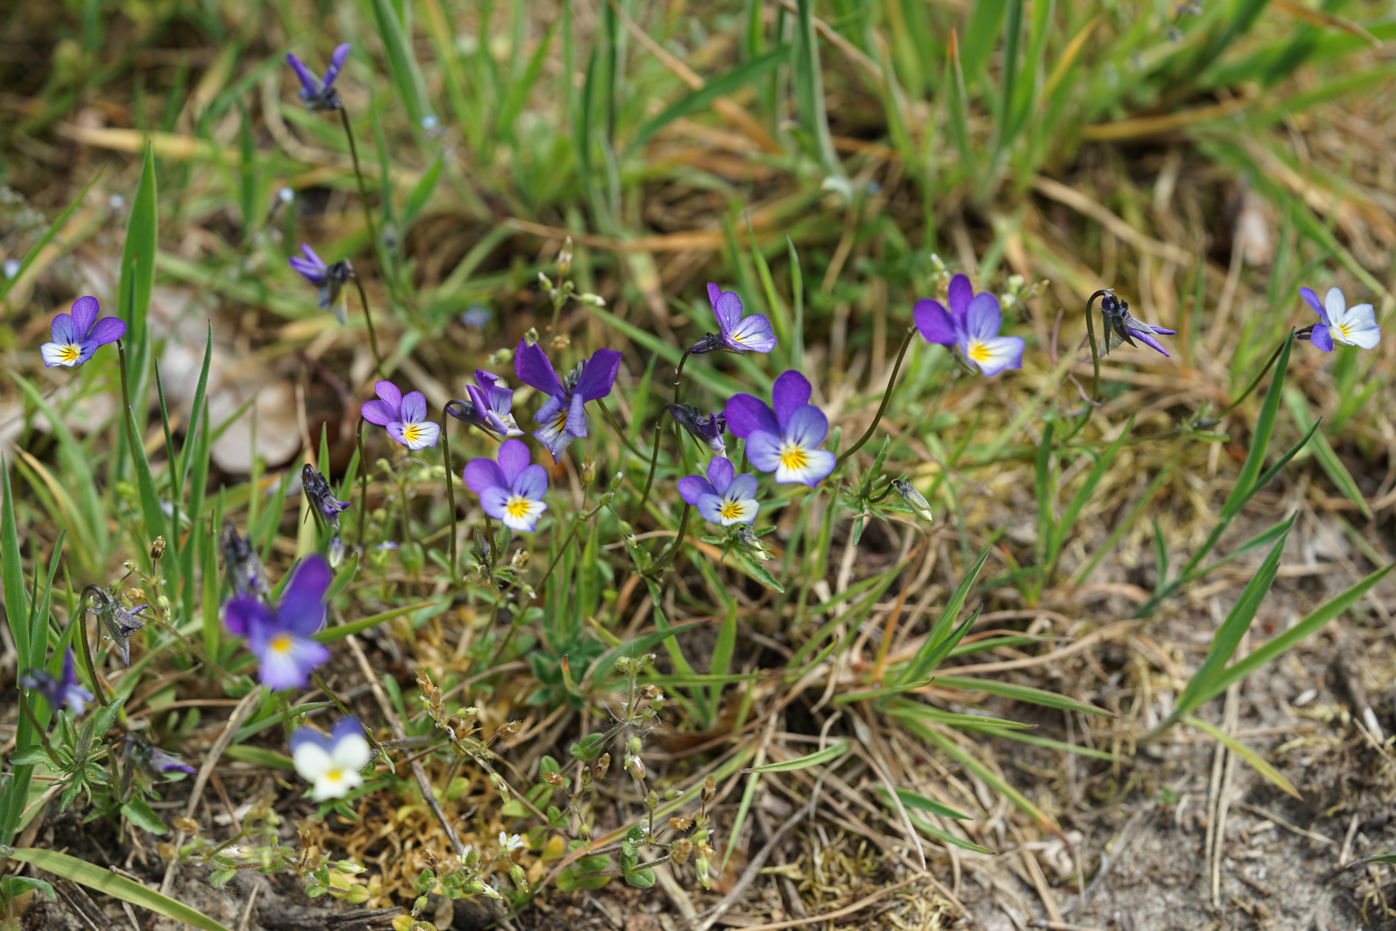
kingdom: Plantae
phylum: Tracheophyta
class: Magnoliopsida
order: Malpighiales
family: Violaceae
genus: Viola
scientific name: Viola tricolor
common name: Pansy
